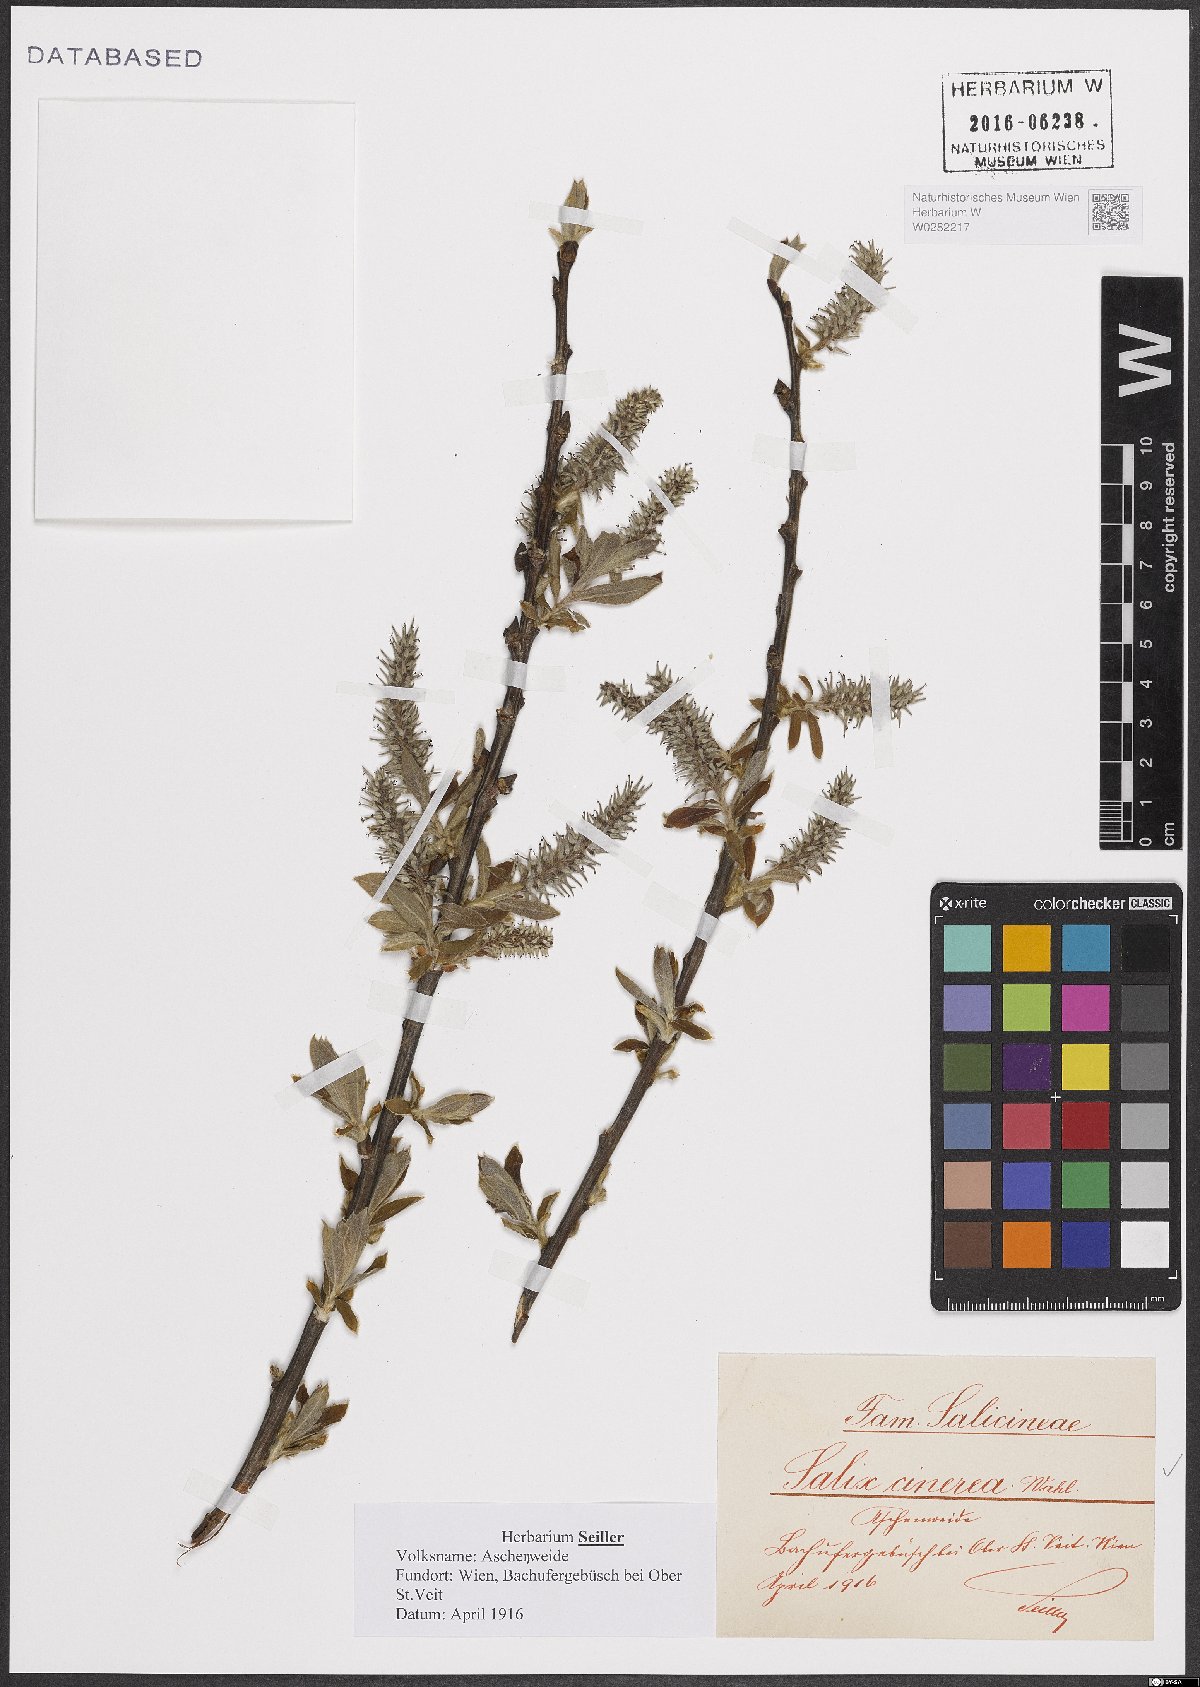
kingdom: Plantae
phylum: Tracheophyta
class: Magnoliopsida
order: Malpighiales
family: Salicaceae
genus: Salix
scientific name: Salix cinerea
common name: Common sallow
